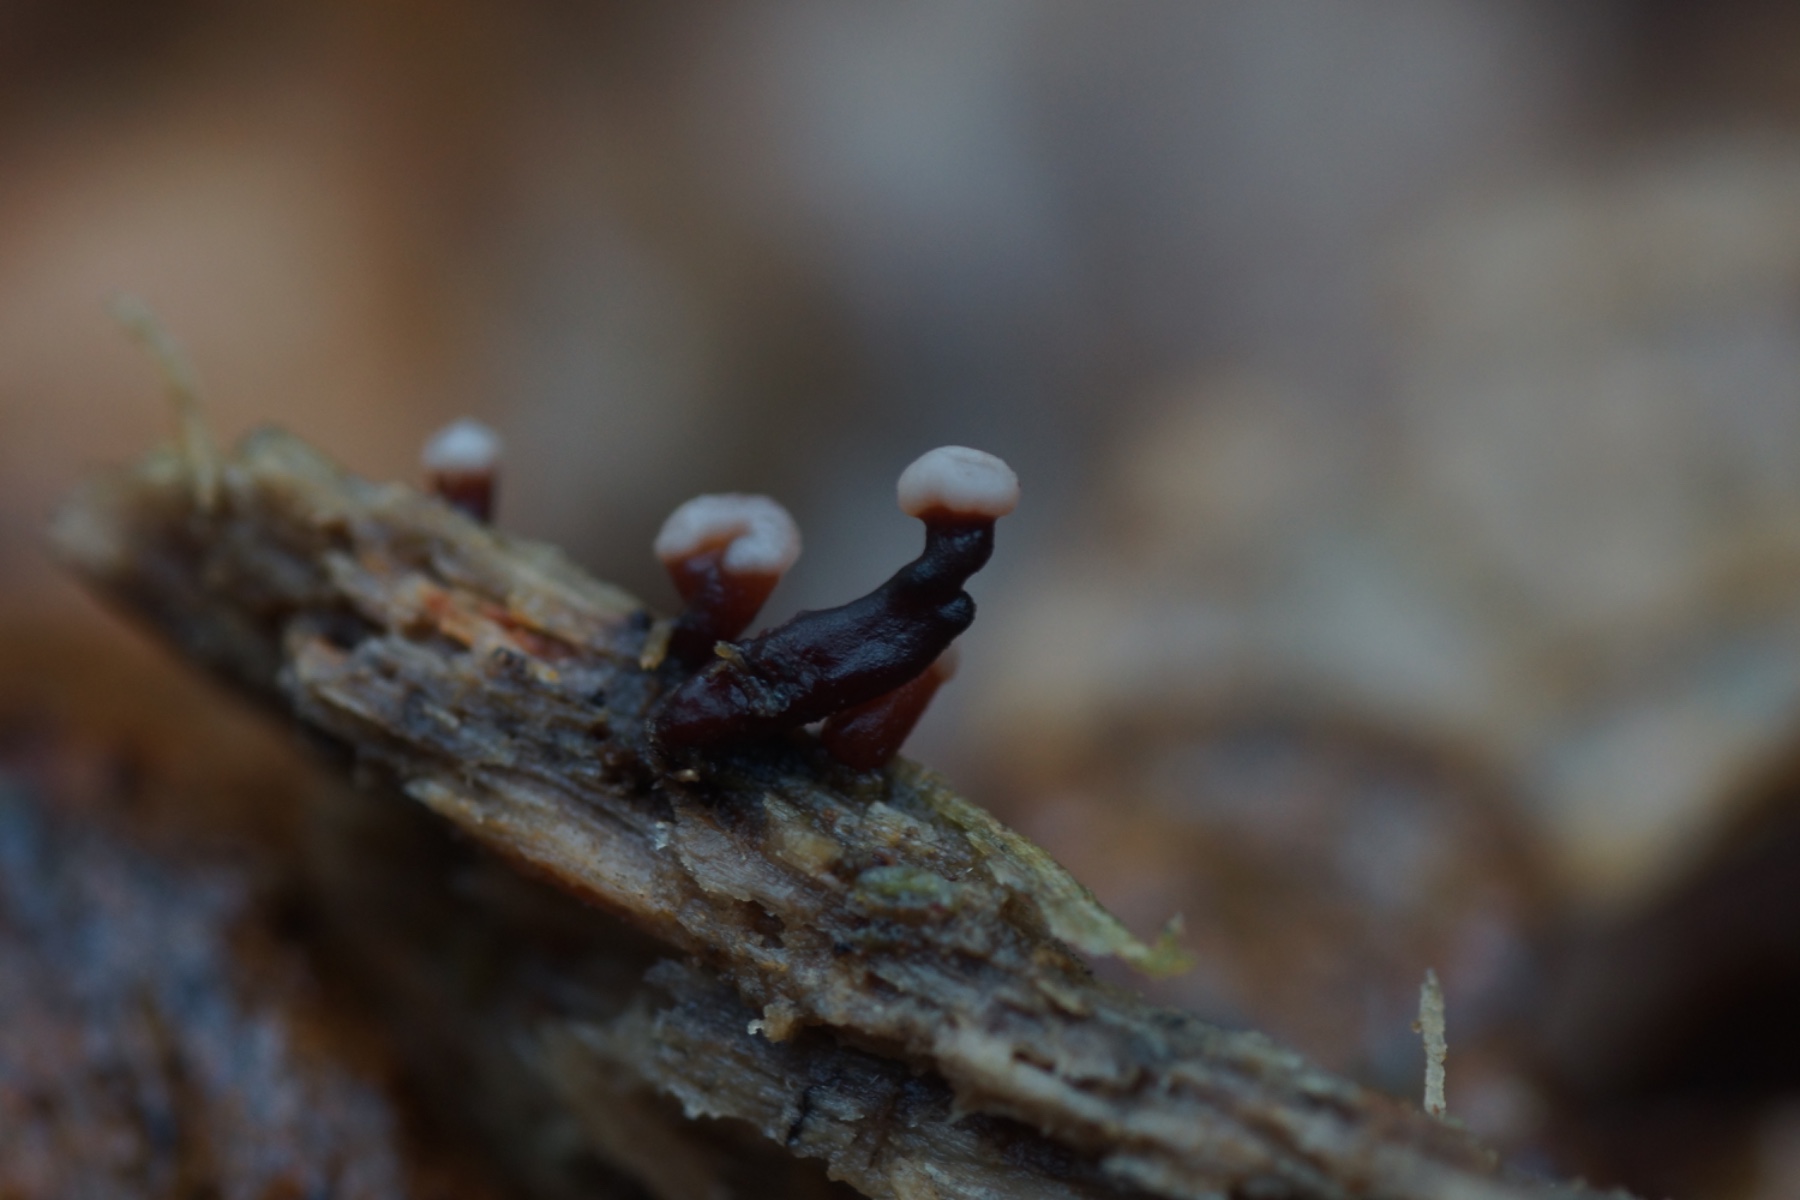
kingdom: Fungi
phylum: Ascomycota
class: Leotiomycetes
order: Helotiales
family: Gelatinodiscaceae
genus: Ascocoryne
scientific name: Ascocoryne albida
